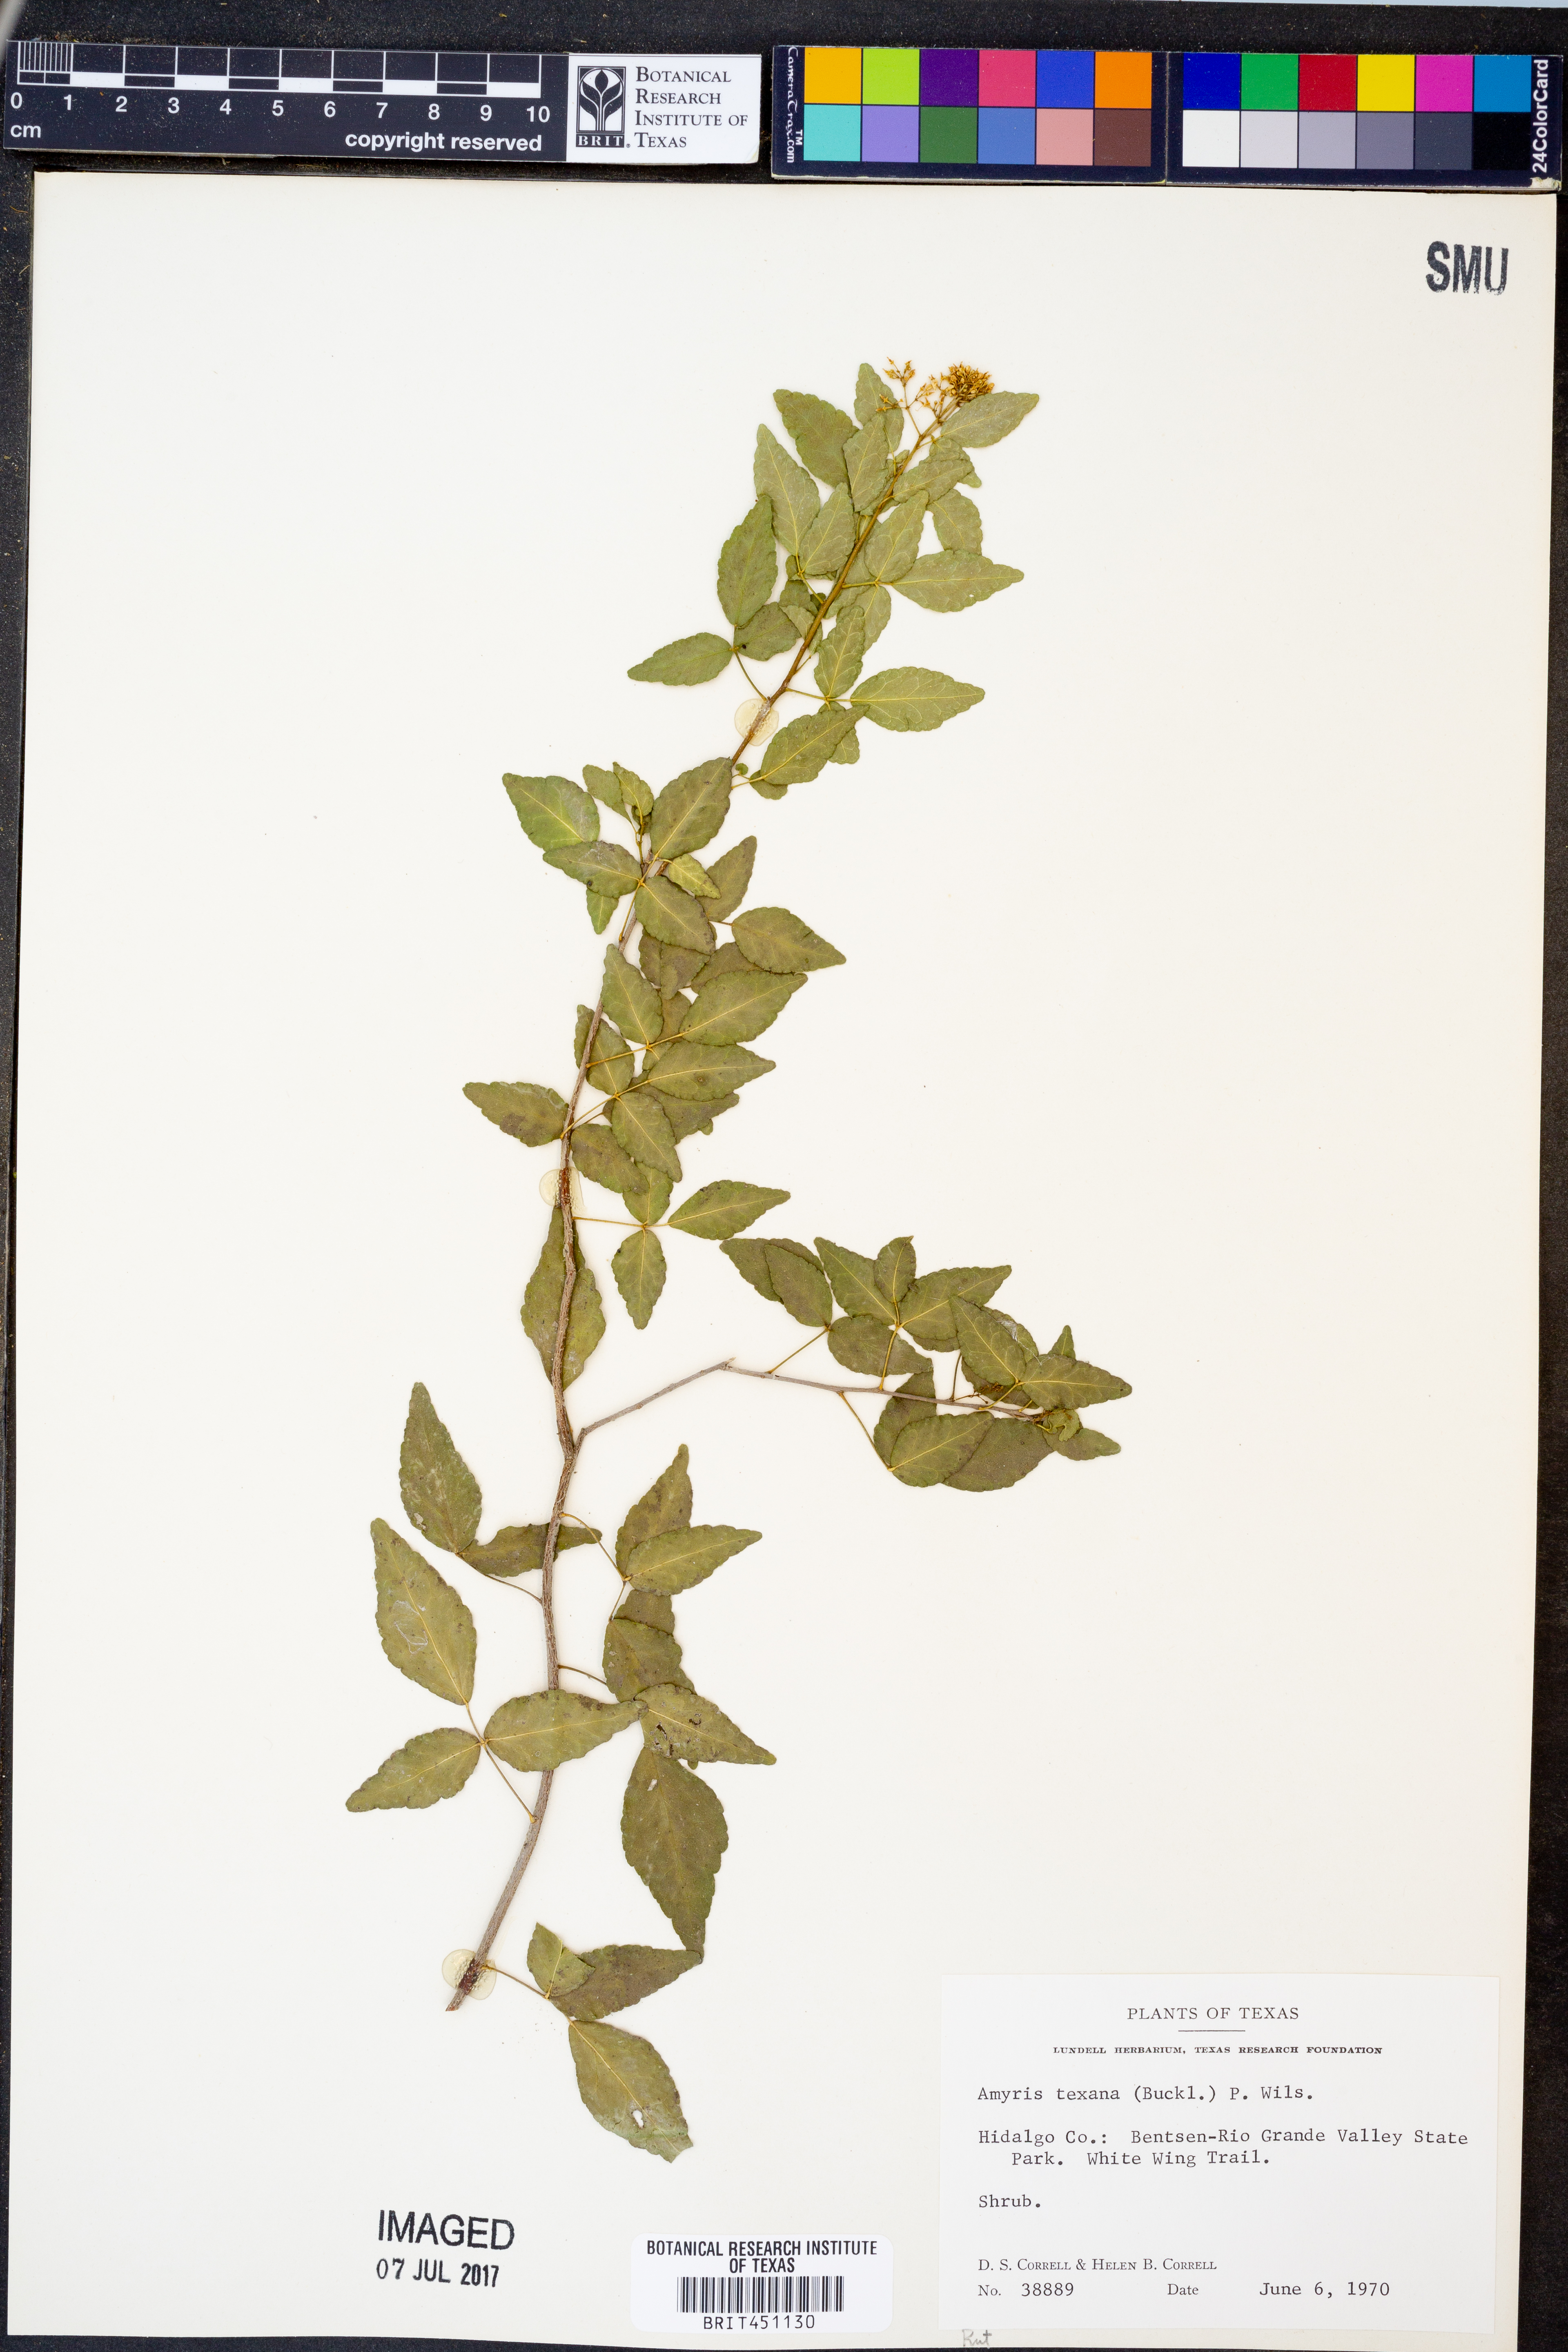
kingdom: Plantae
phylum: Tracheophyta
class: Magnoliopsida
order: Sapindales
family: Rutaceae
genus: Amyris
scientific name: Amyris texana
